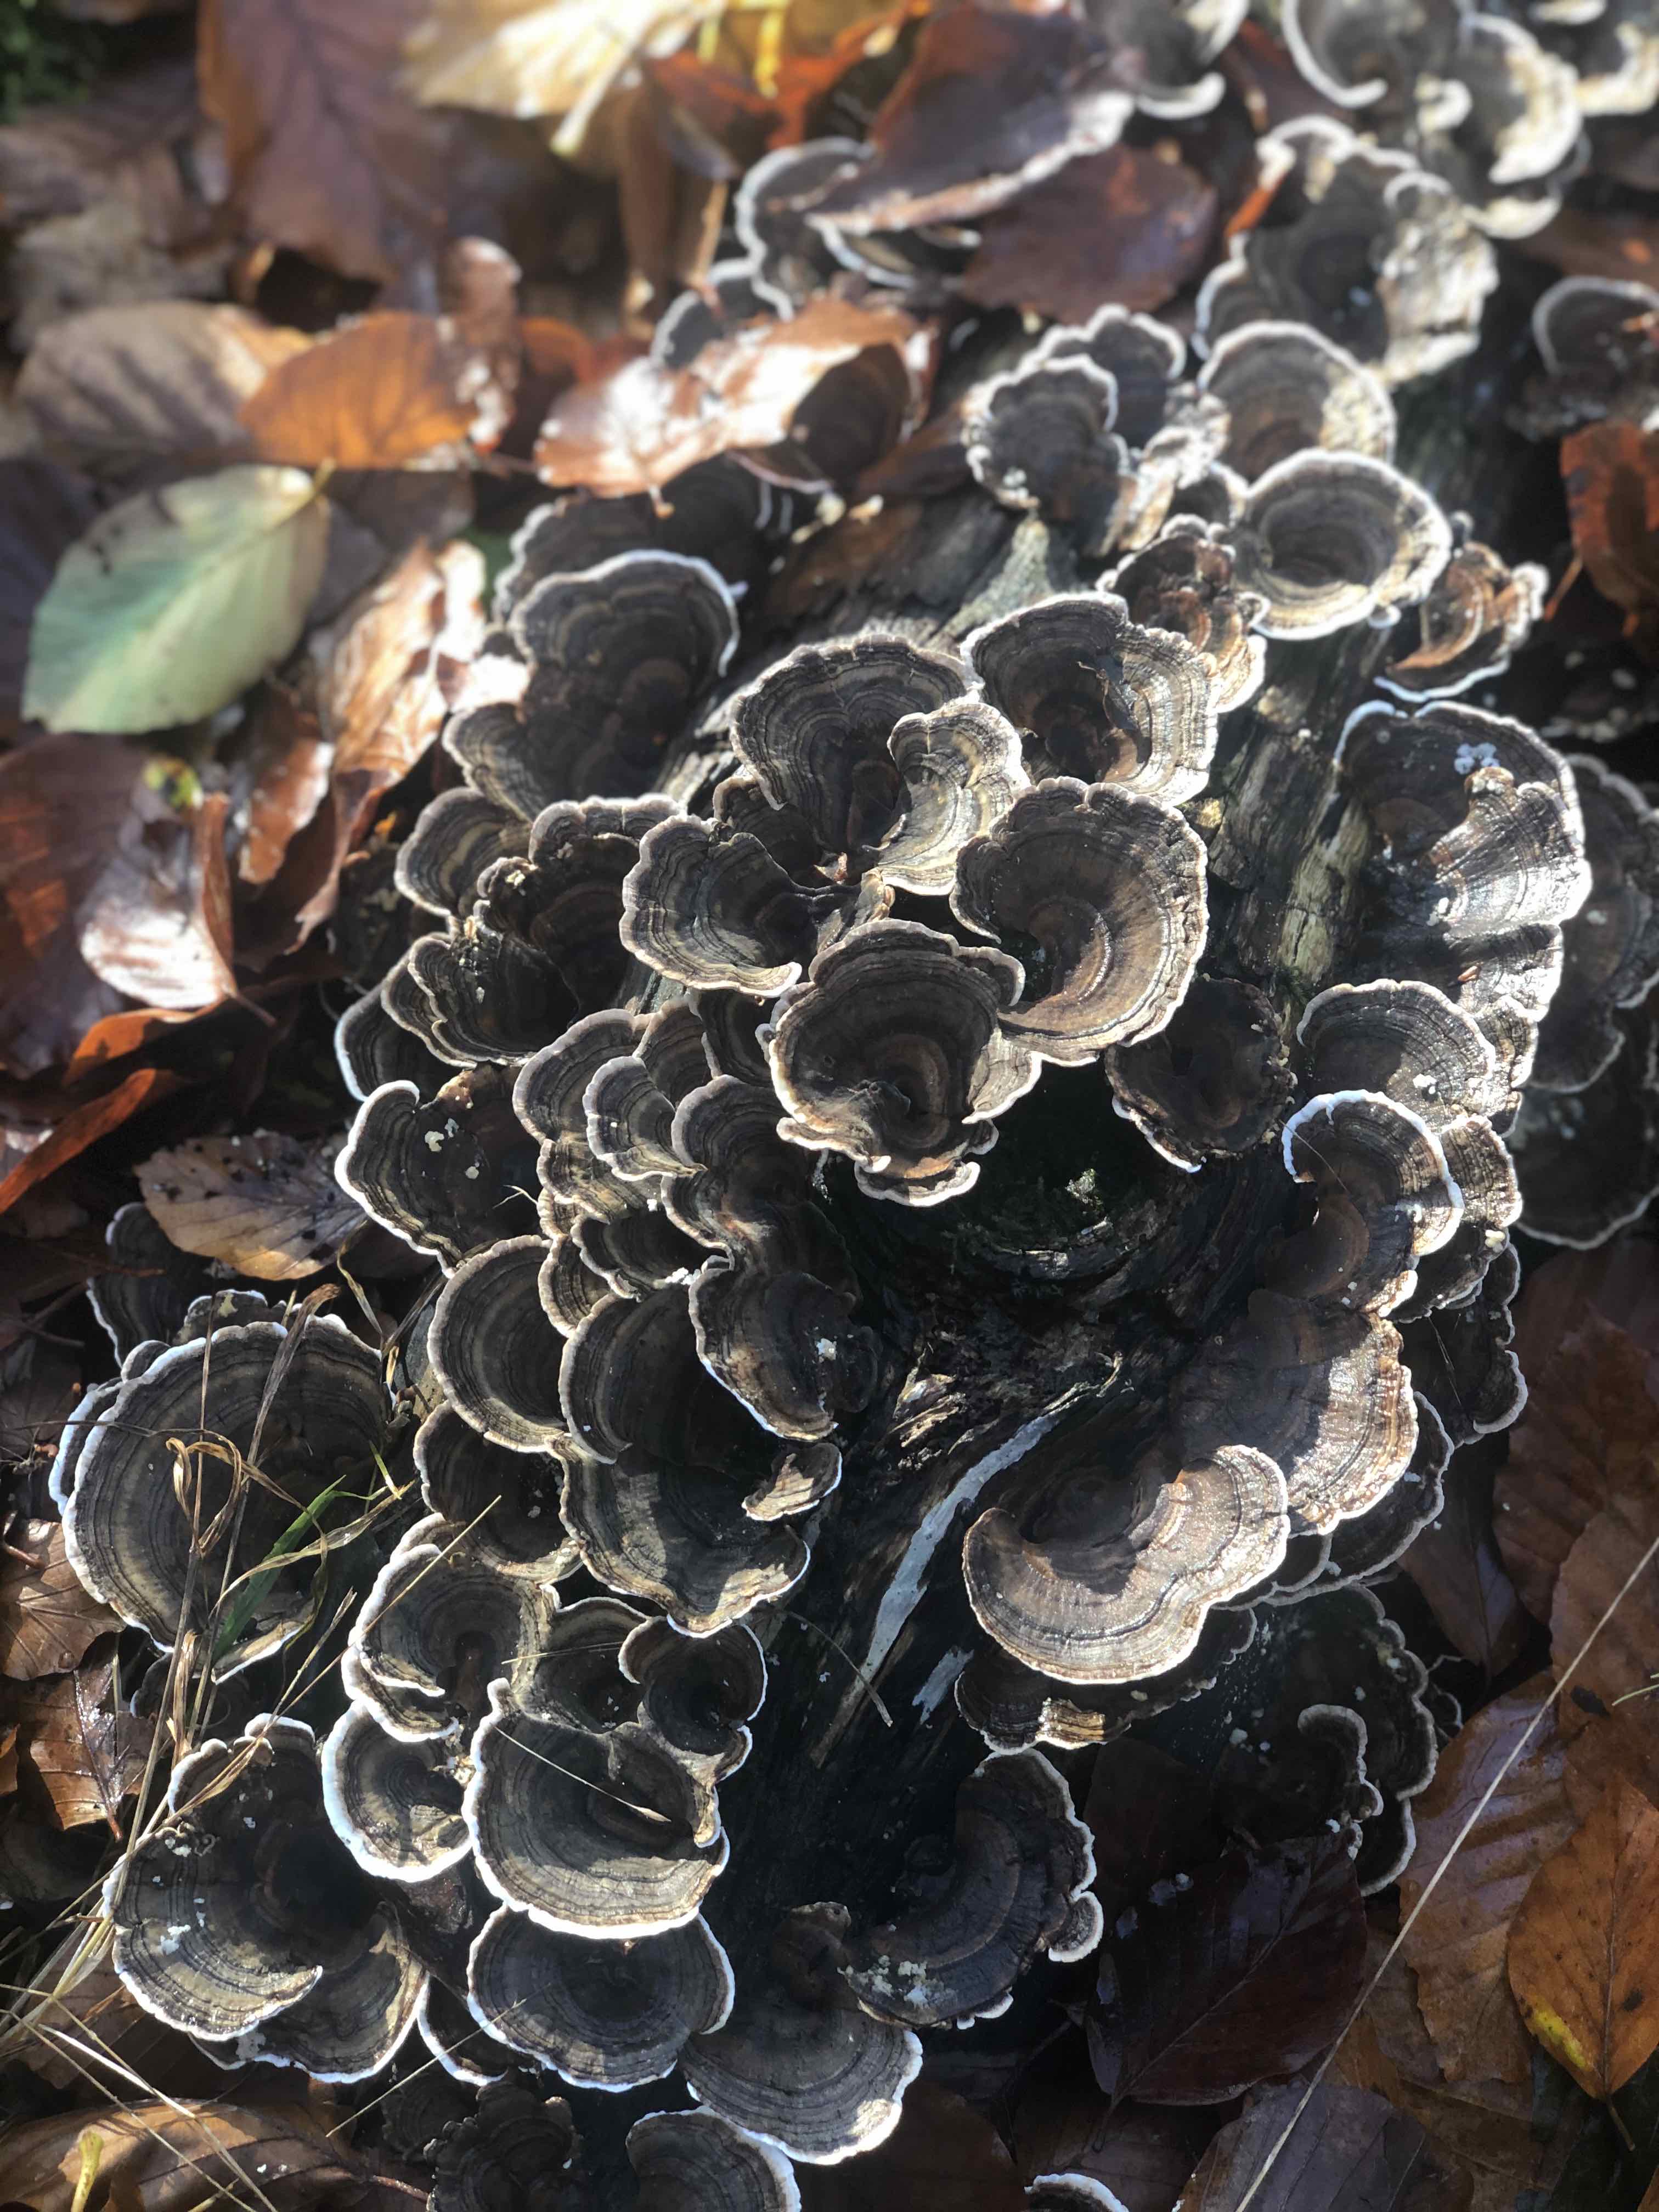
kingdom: Fungi
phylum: Basidiomycota
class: Agaricomycetes
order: Polyporales
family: Polyporaceae
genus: Trametes
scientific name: Trametes versicolor
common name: broget læderporesvamp
